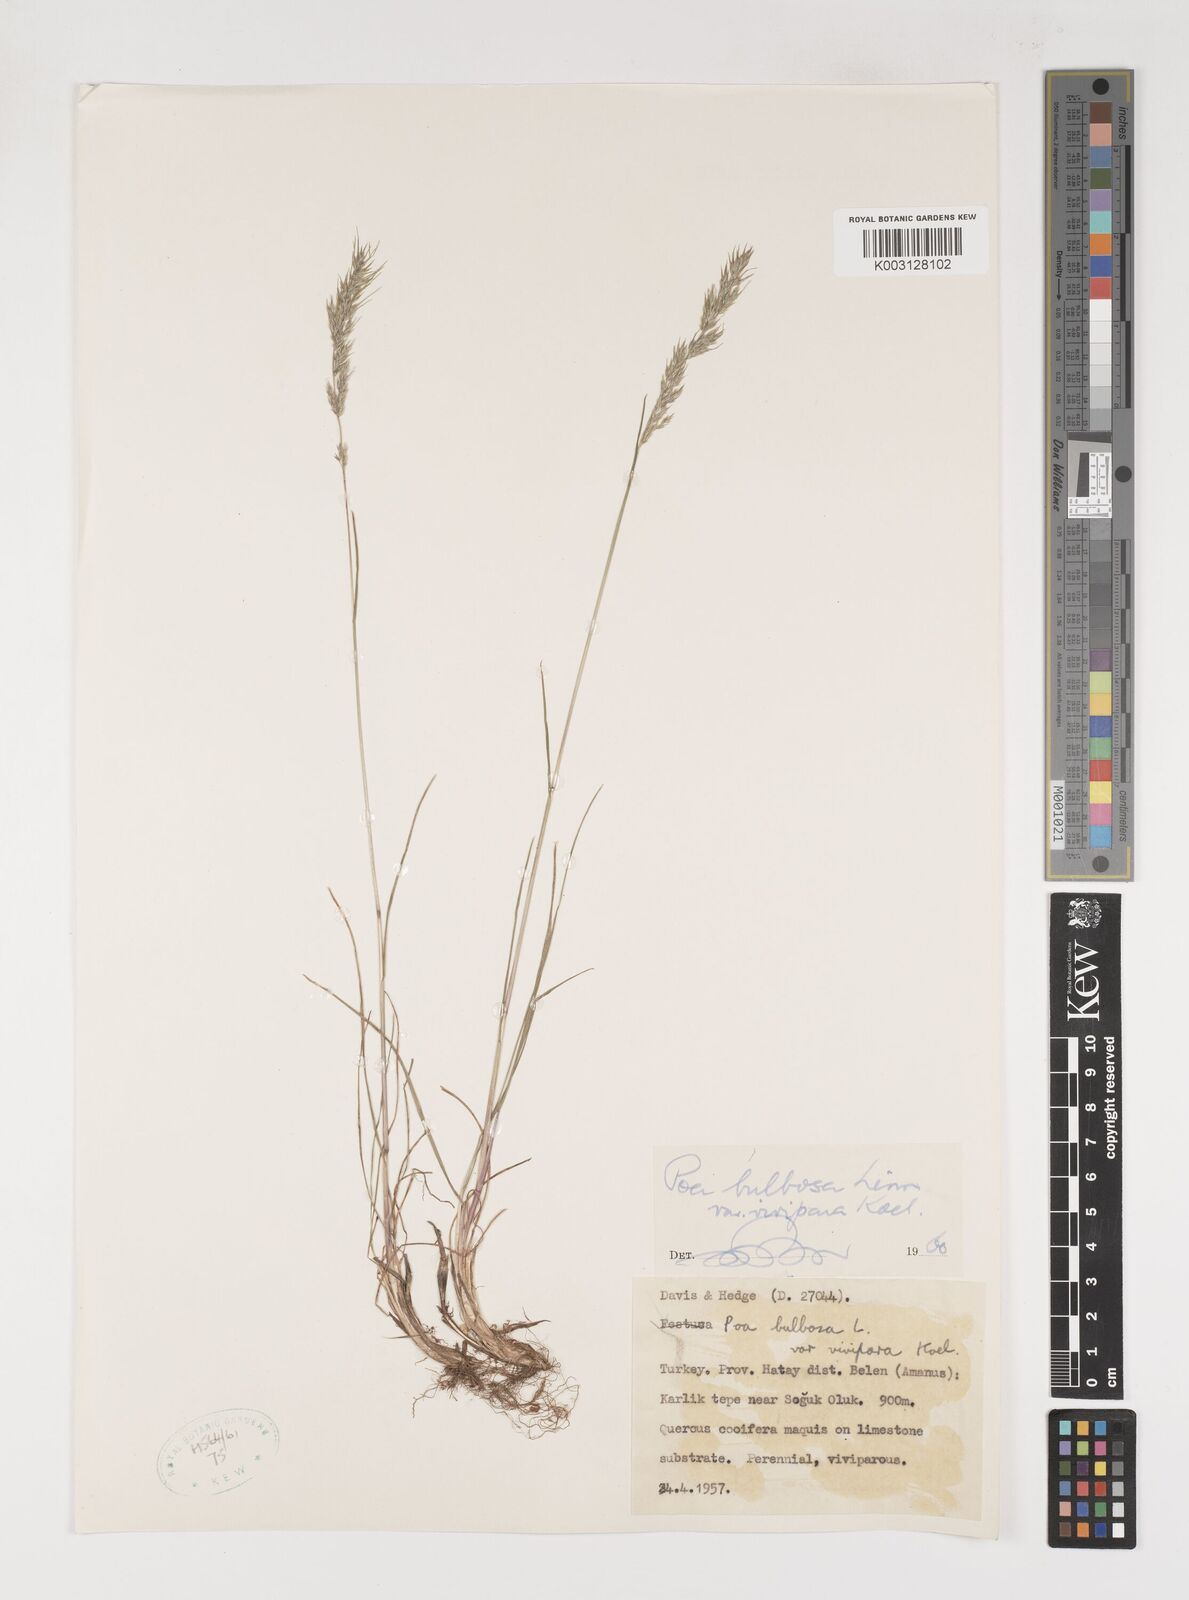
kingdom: Plantae
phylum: Tracheophyta
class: Liliopsida
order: Poales
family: Poaceae
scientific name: Poaceae
